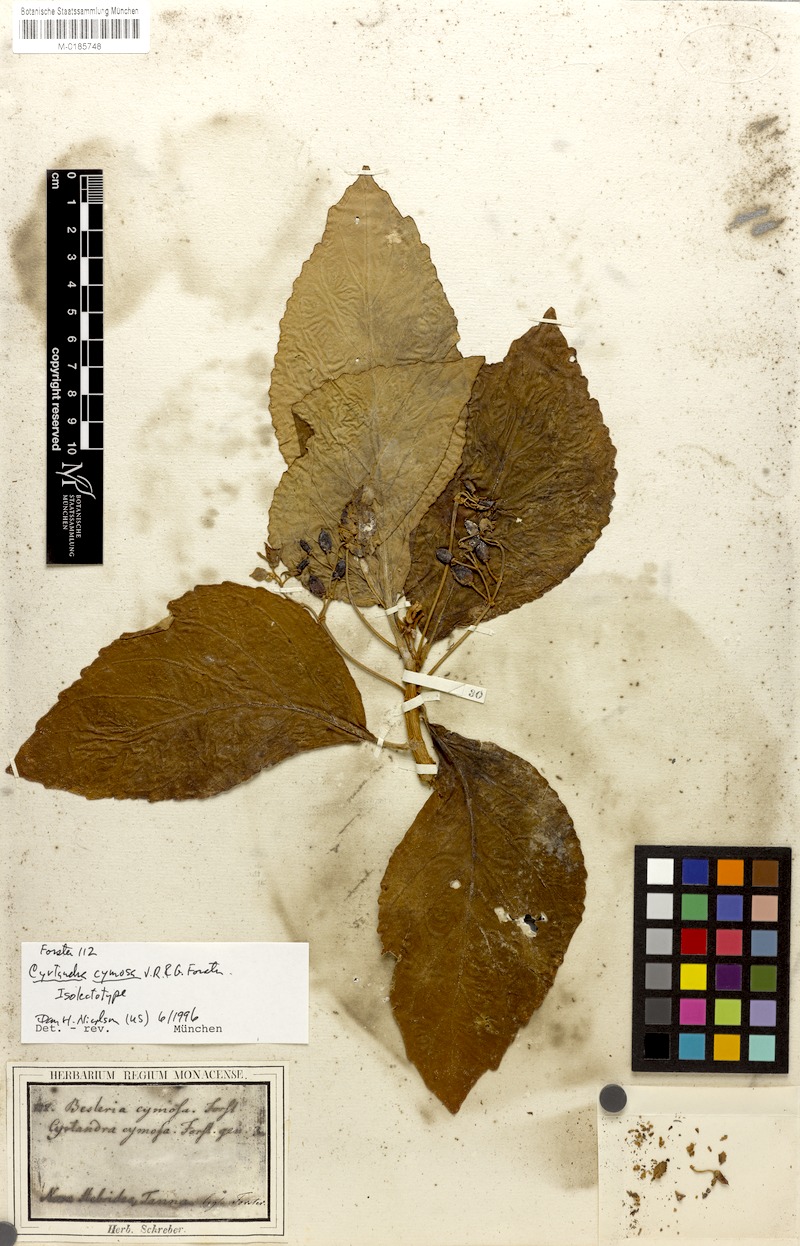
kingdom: Plantae
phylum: Tracheophyta
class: Magnoliopsida
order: Lamiales
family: Gesneriaceae
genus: Cyrtandra
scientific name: Cyrtandra cymosa
